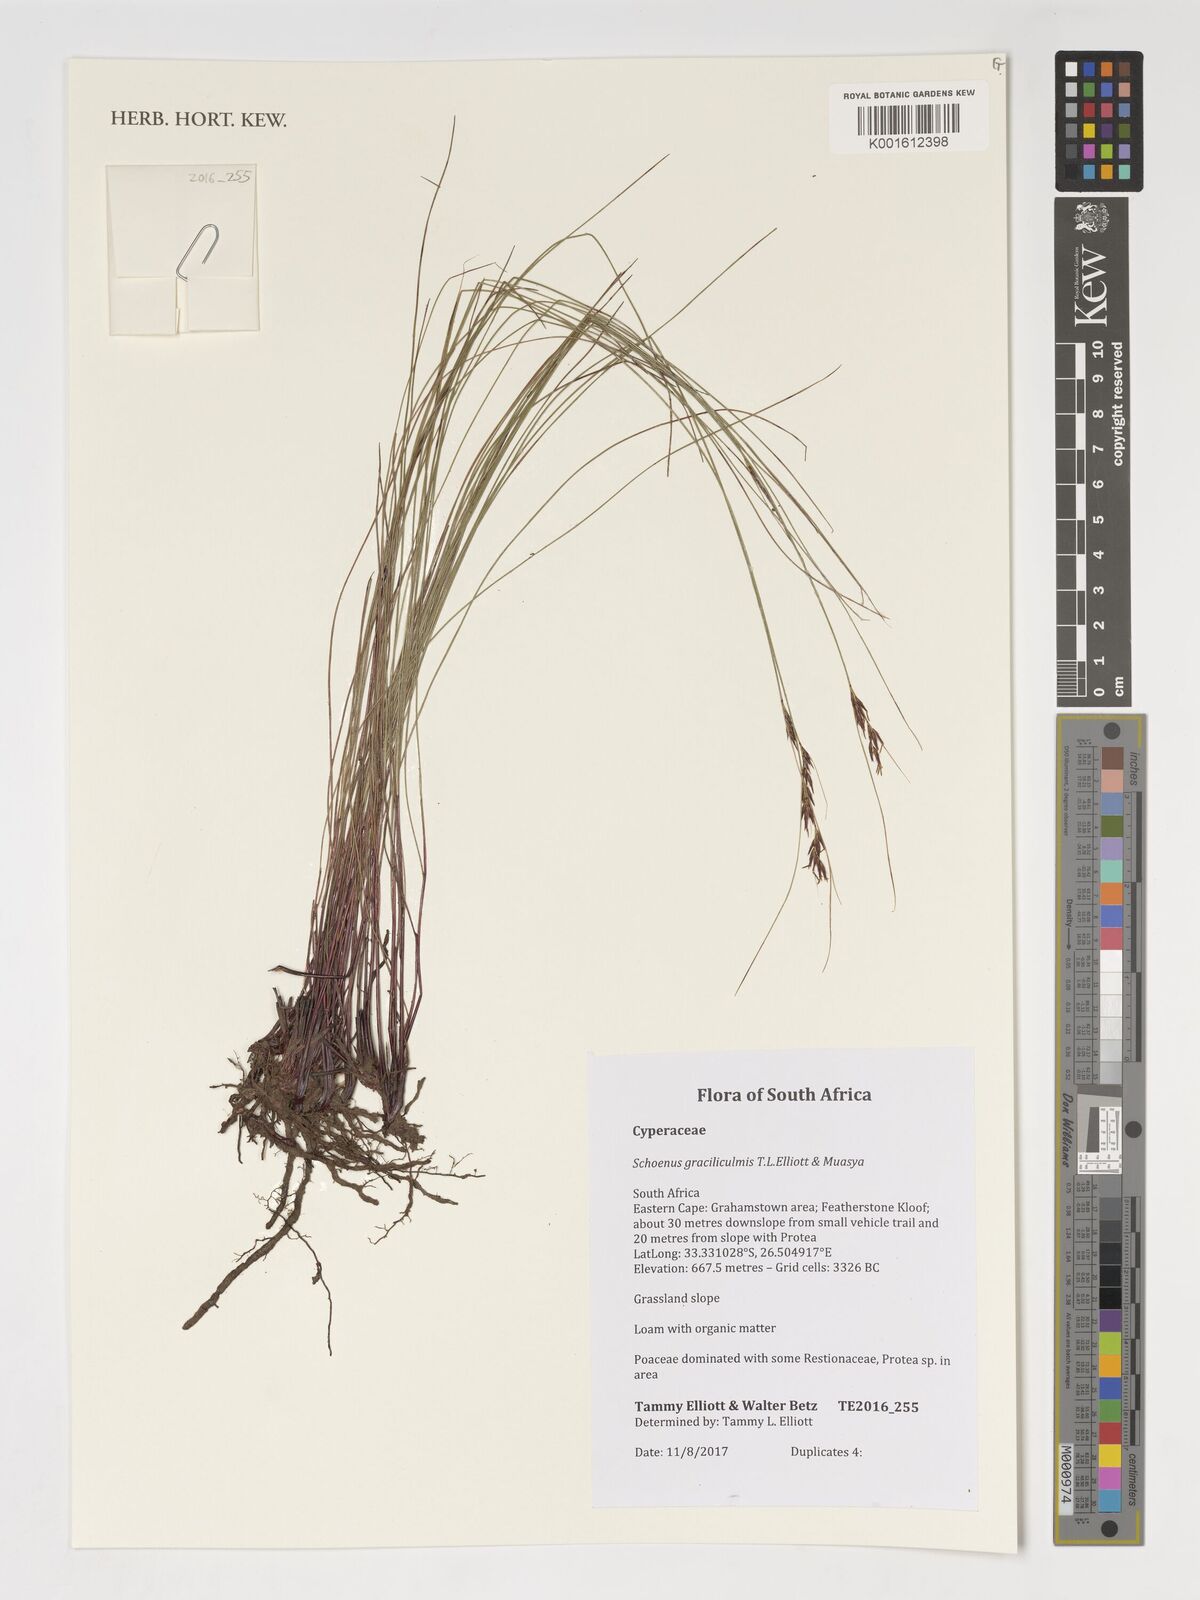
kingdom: Plantae
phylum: Tracheophyta
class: Liliopsida
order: Poales
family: Cyperaceae
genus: Schoenus
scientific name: Schoenus
